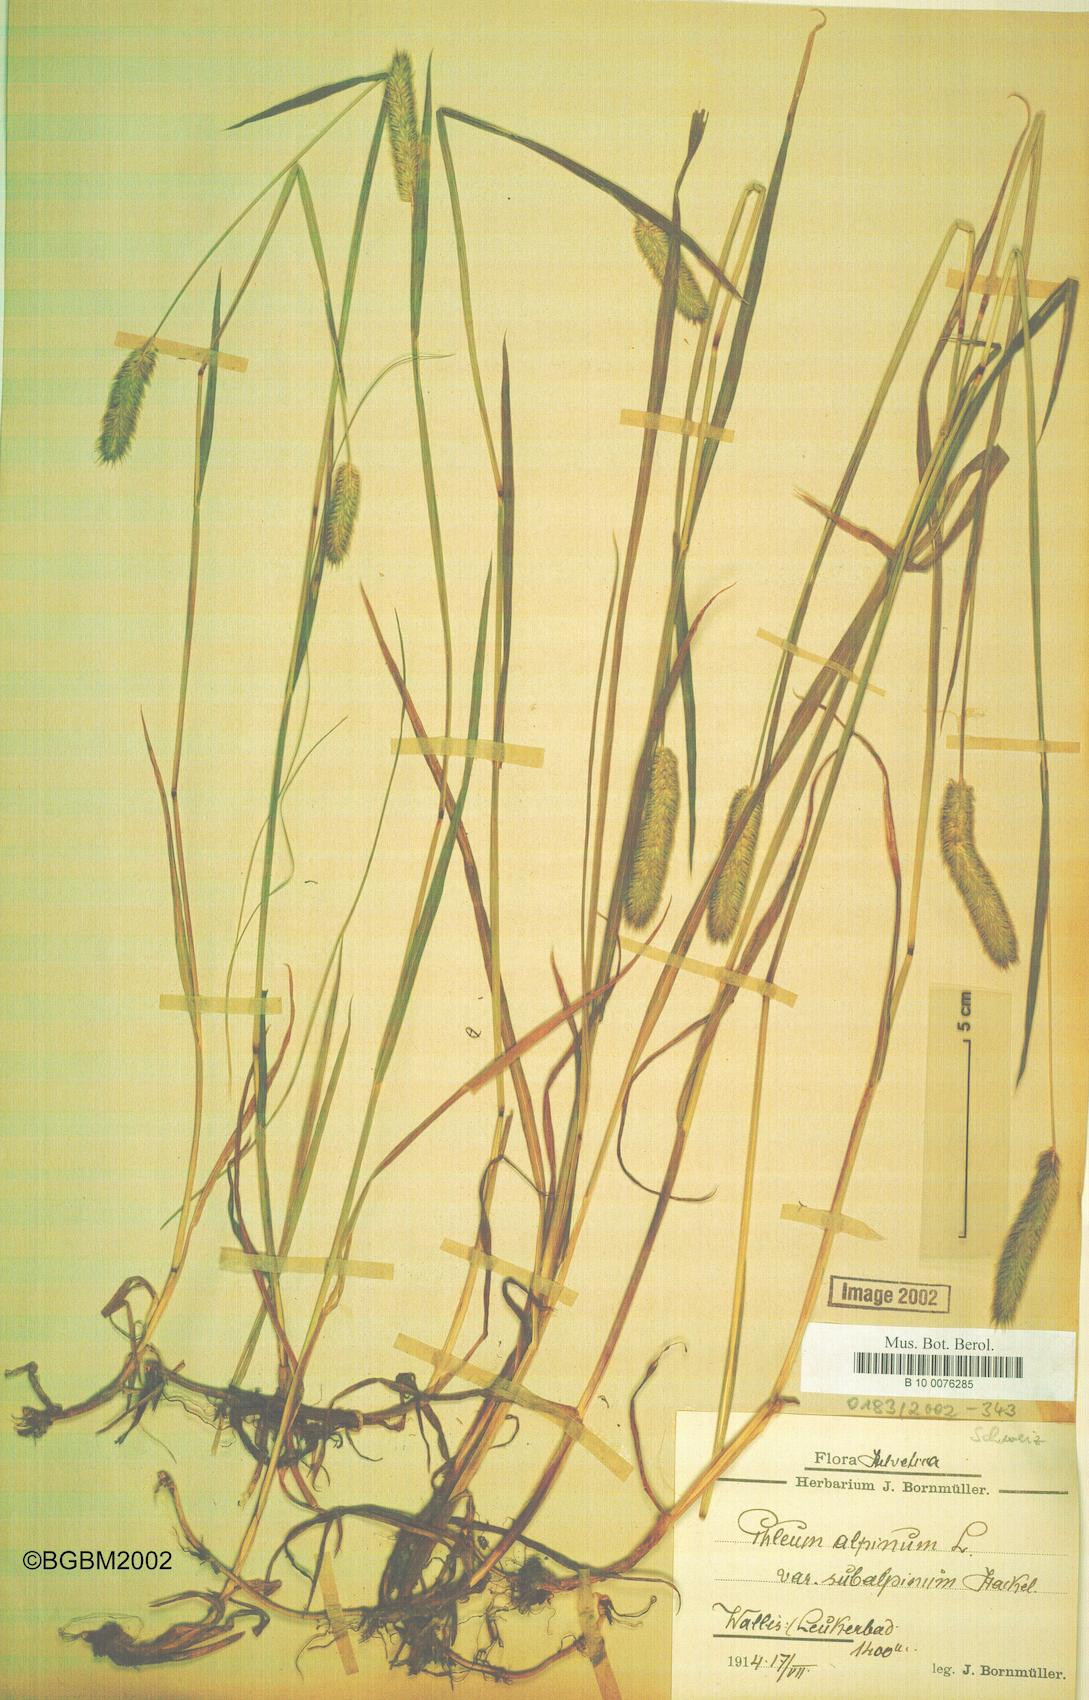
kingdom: Plantae
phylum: Tracheophyta
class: Liliopsida
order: Poales
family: Poaceae
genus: Phleum
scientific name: Phleum alpinum
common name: Alpine cat's-tail
